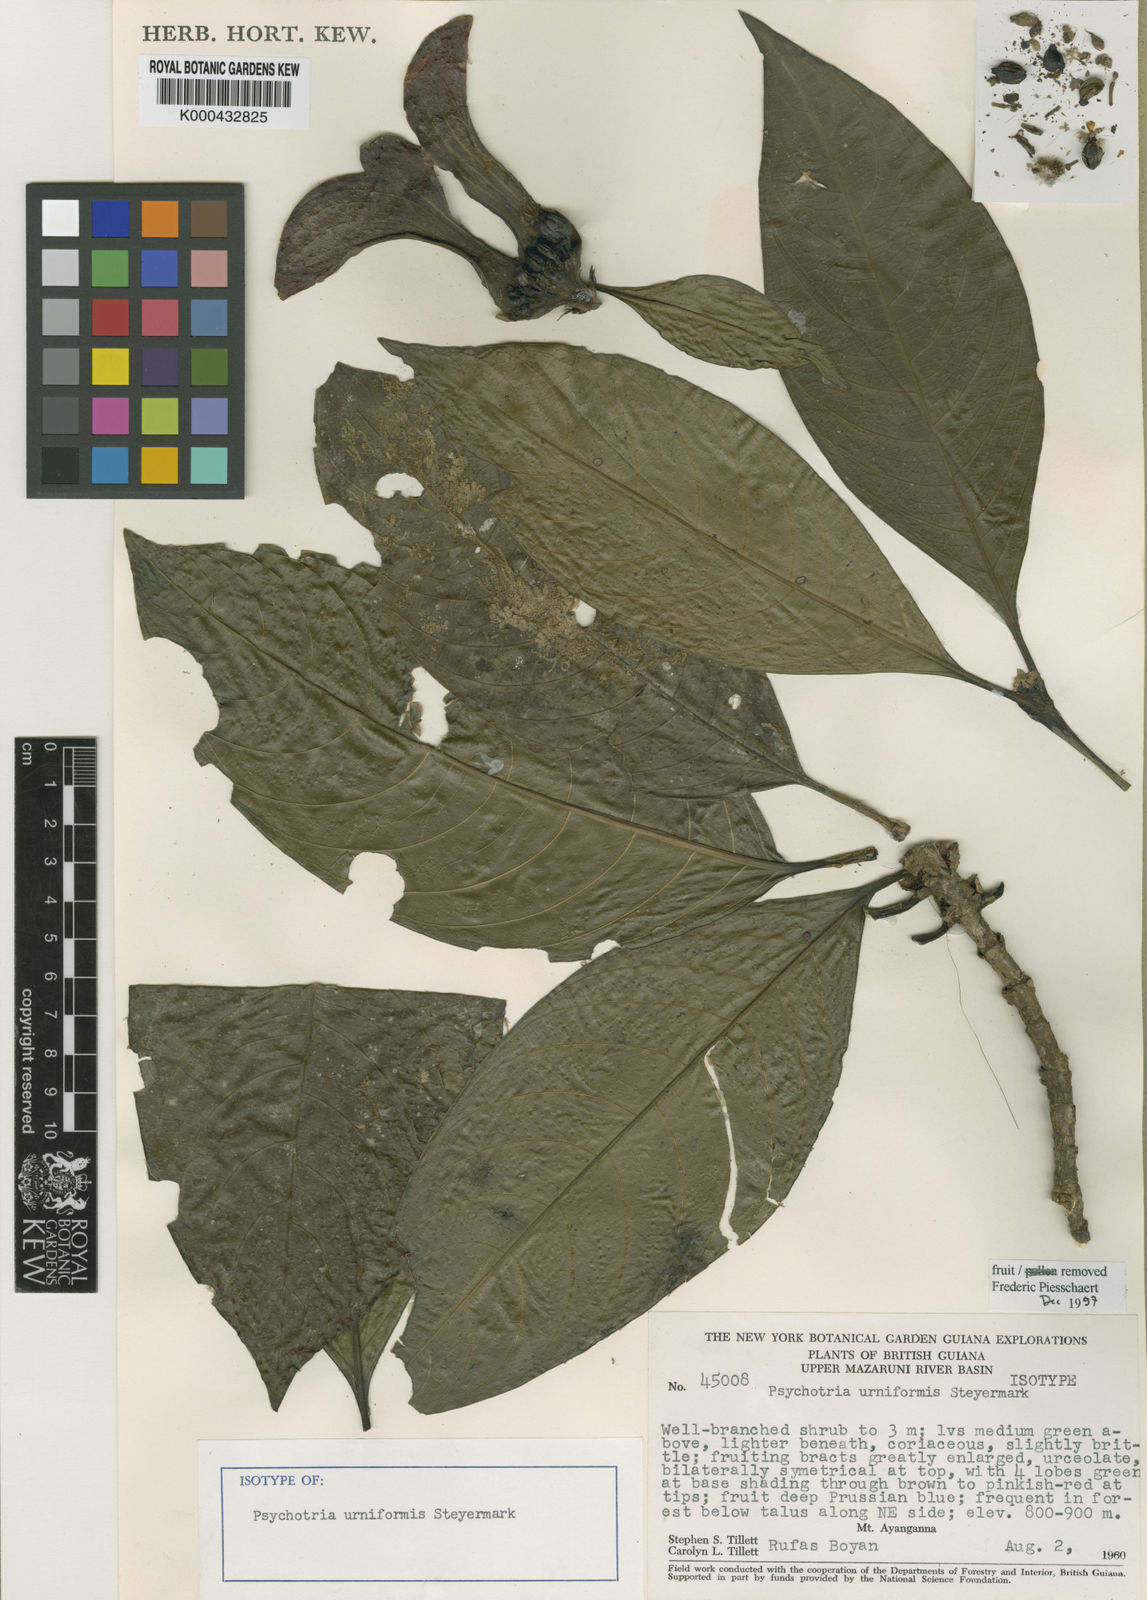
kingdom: Plantae
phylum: Tracheophyta
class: Magnoliopsida
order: Gentianales
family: Rubiaceae
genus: Carapichea
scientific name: Carapichea urniformis
